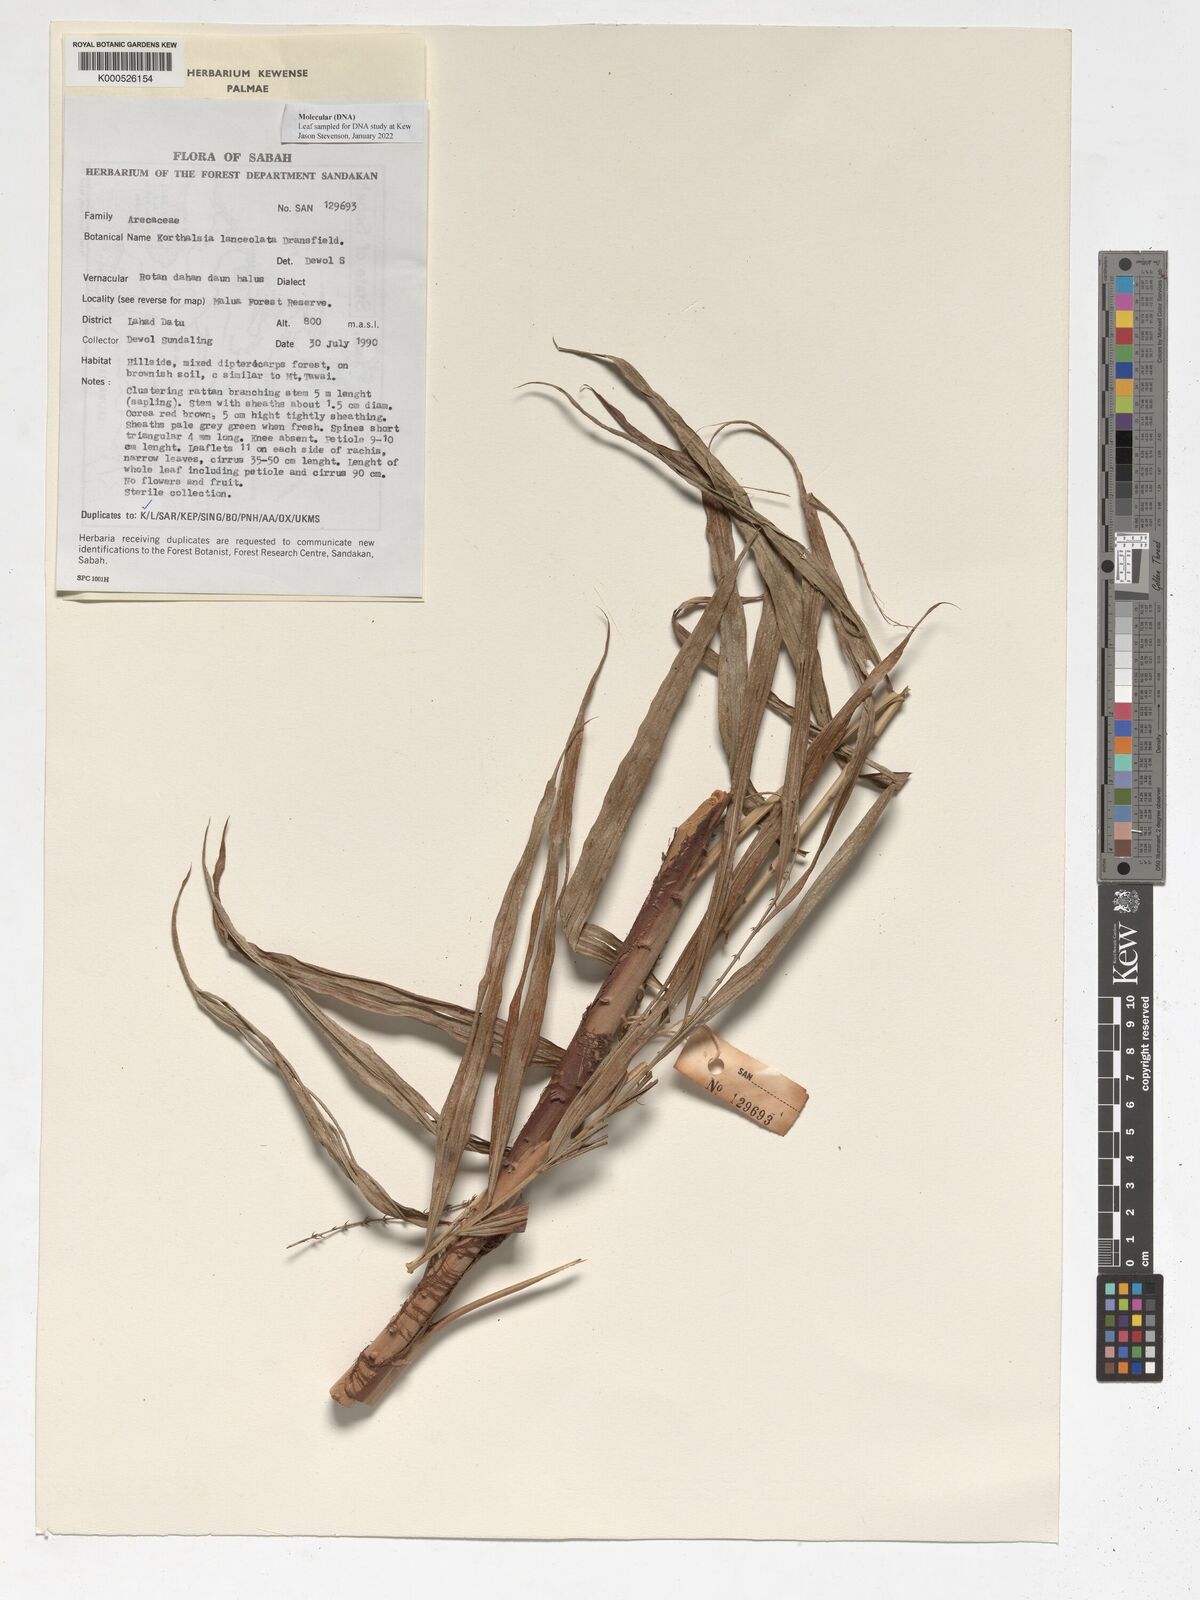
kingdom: Plantae
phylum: Tracheophyta
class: Liliopsida
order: Arecales
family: Arecaceae
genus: Korthalsia
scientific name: Korthalsia lanceolata
